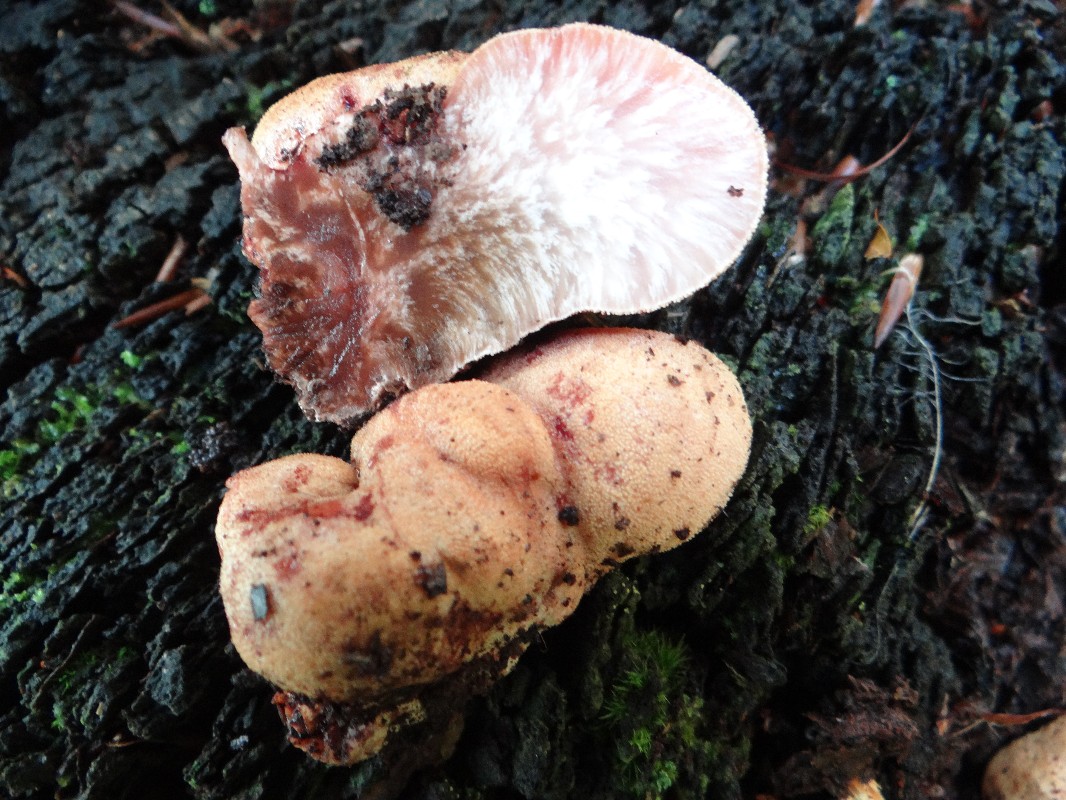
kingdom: Fungi
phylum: Basidiomycota
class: Agaricomycetes
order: Agaricales
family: Fistulinaceae
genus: Fistulina
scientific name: Fistulina hepatica
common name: oksetunge
